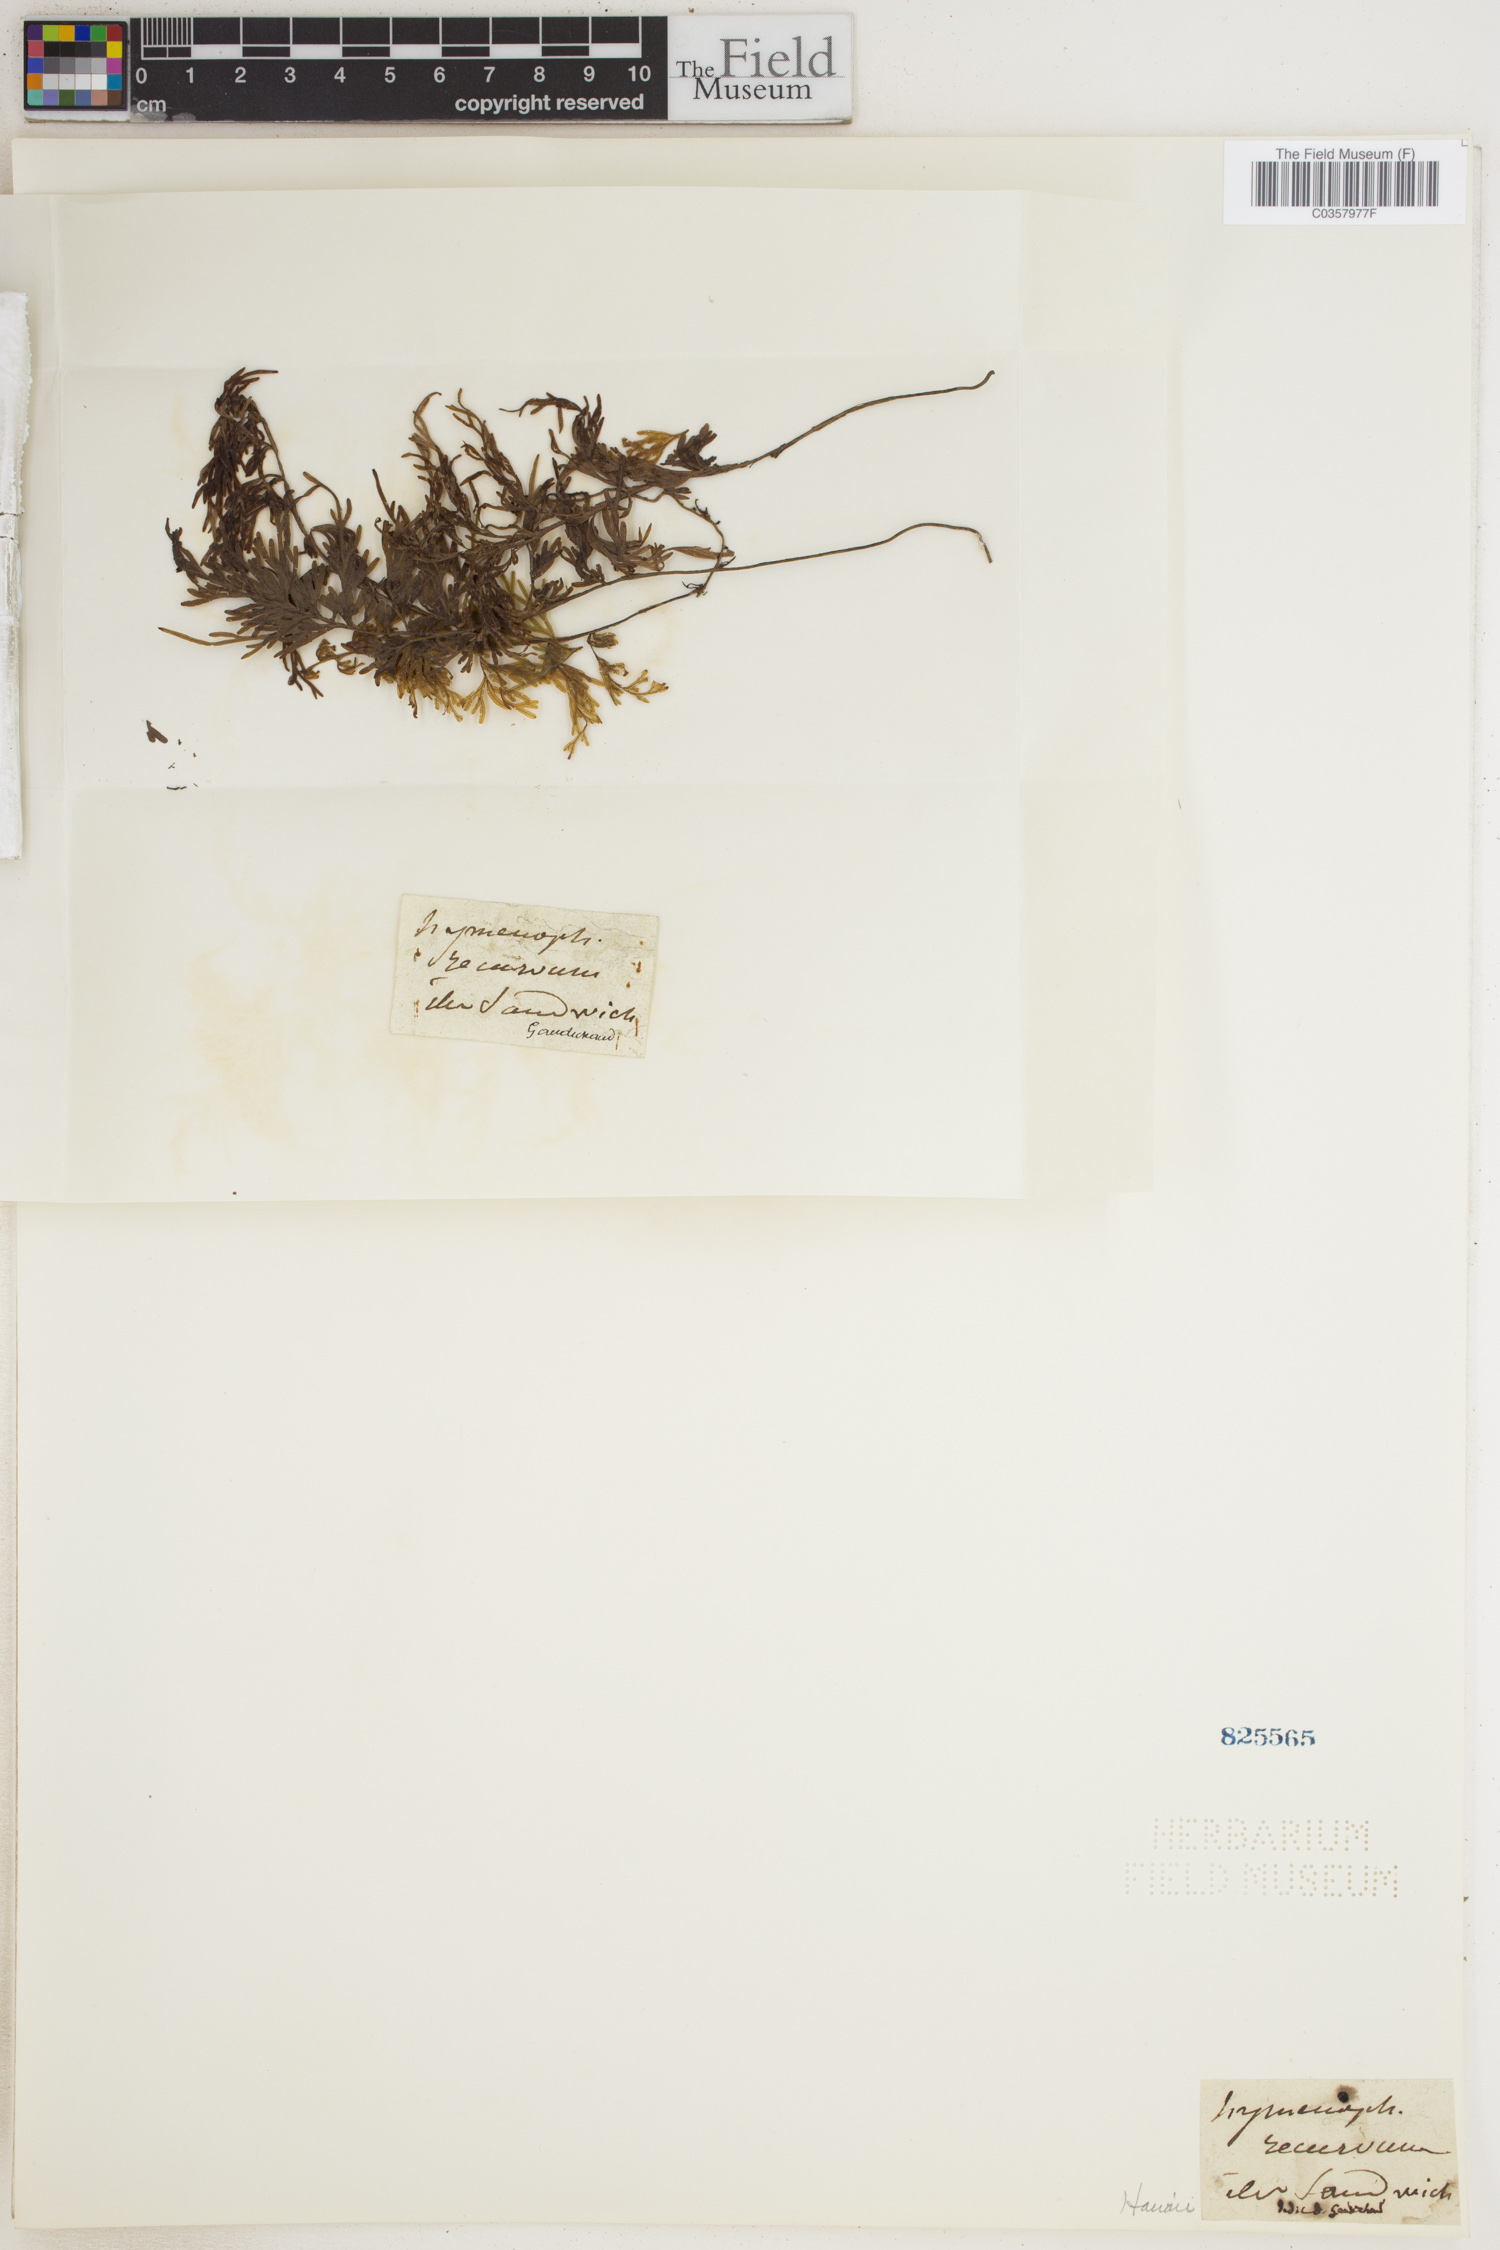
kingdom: Plantae
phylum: Tracheophyta
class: Polypodiopsida
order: Hymenophyllales
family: Hymenophyllaceae
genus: Hymenophyllum
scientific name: Hymenophyllum recurvum
